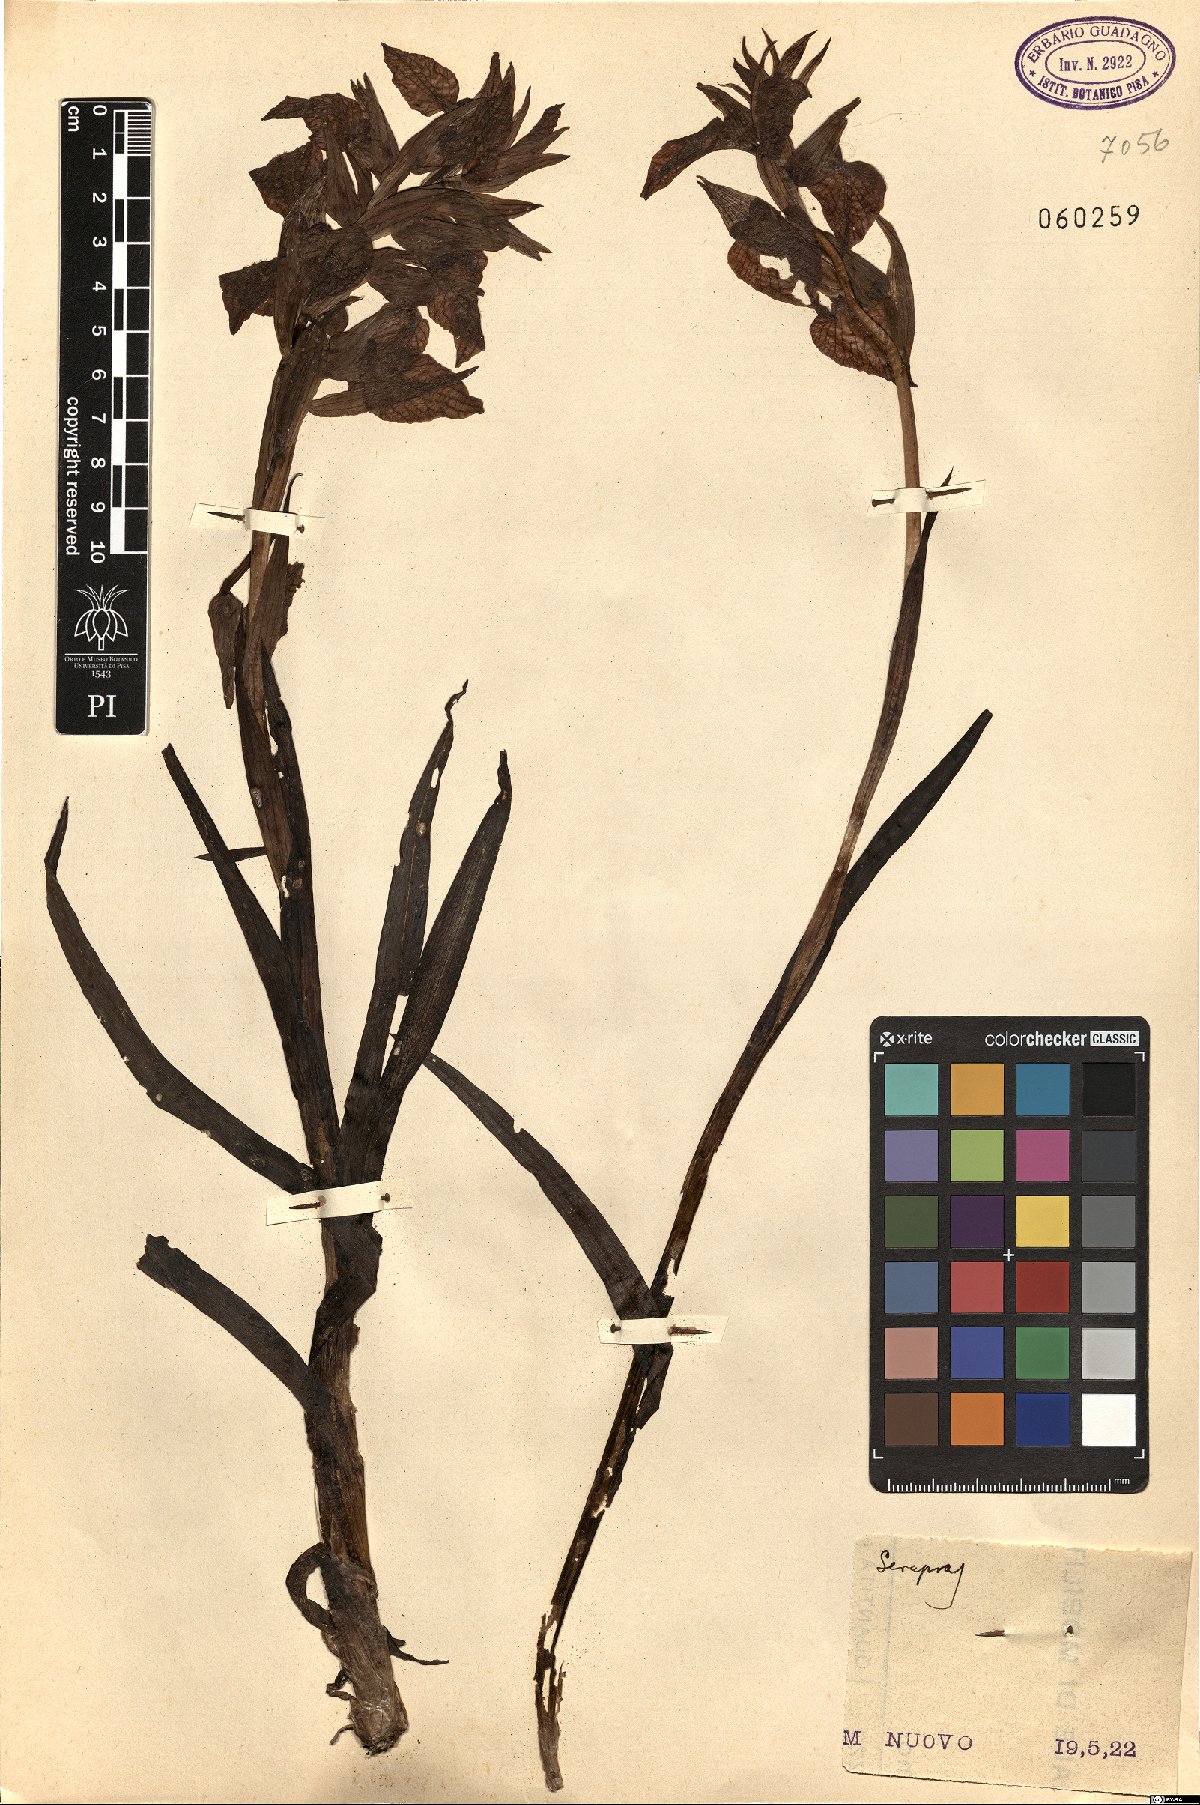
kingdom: Plantae
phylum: Tracheophyta
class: Liliopsida
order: Asparagales
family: Orchidaceae
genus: Serapias
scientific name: Serapias
